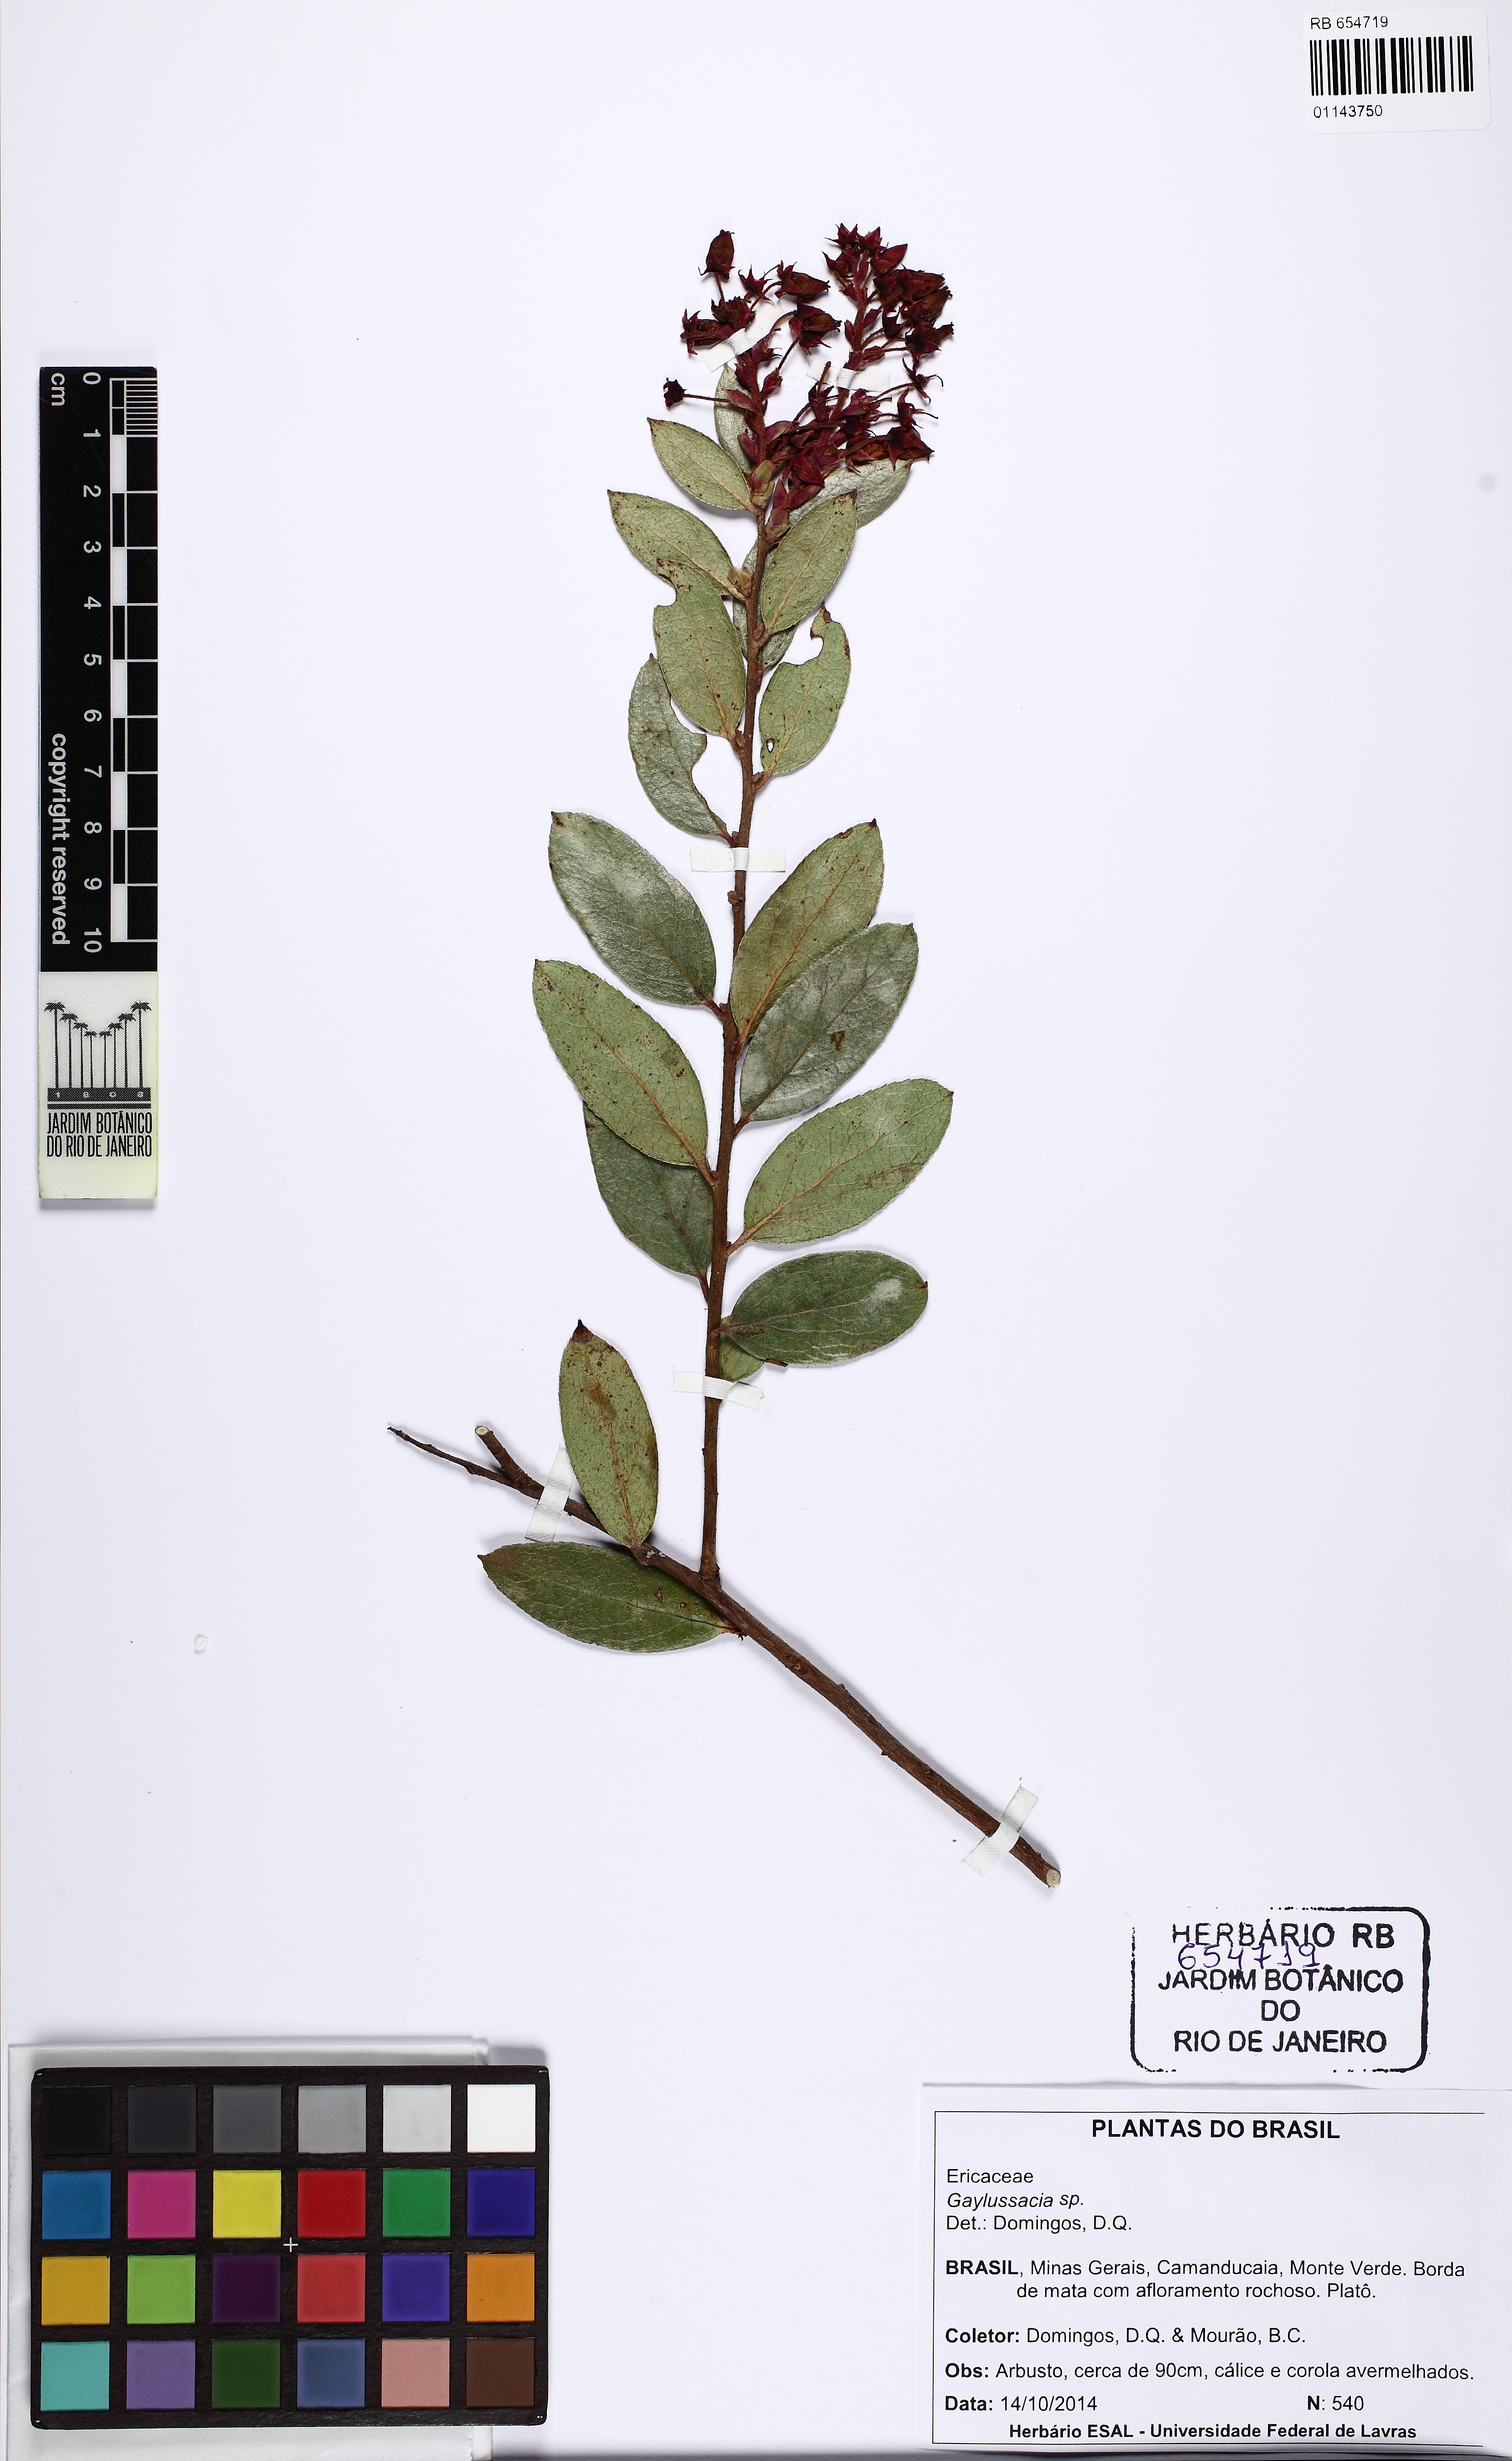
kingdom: Plantae
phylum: Tracheophyta
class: Magnoliopsida
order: Ericales
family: Ericaceae
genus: Gaylussacia
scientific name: Gaylussacia
